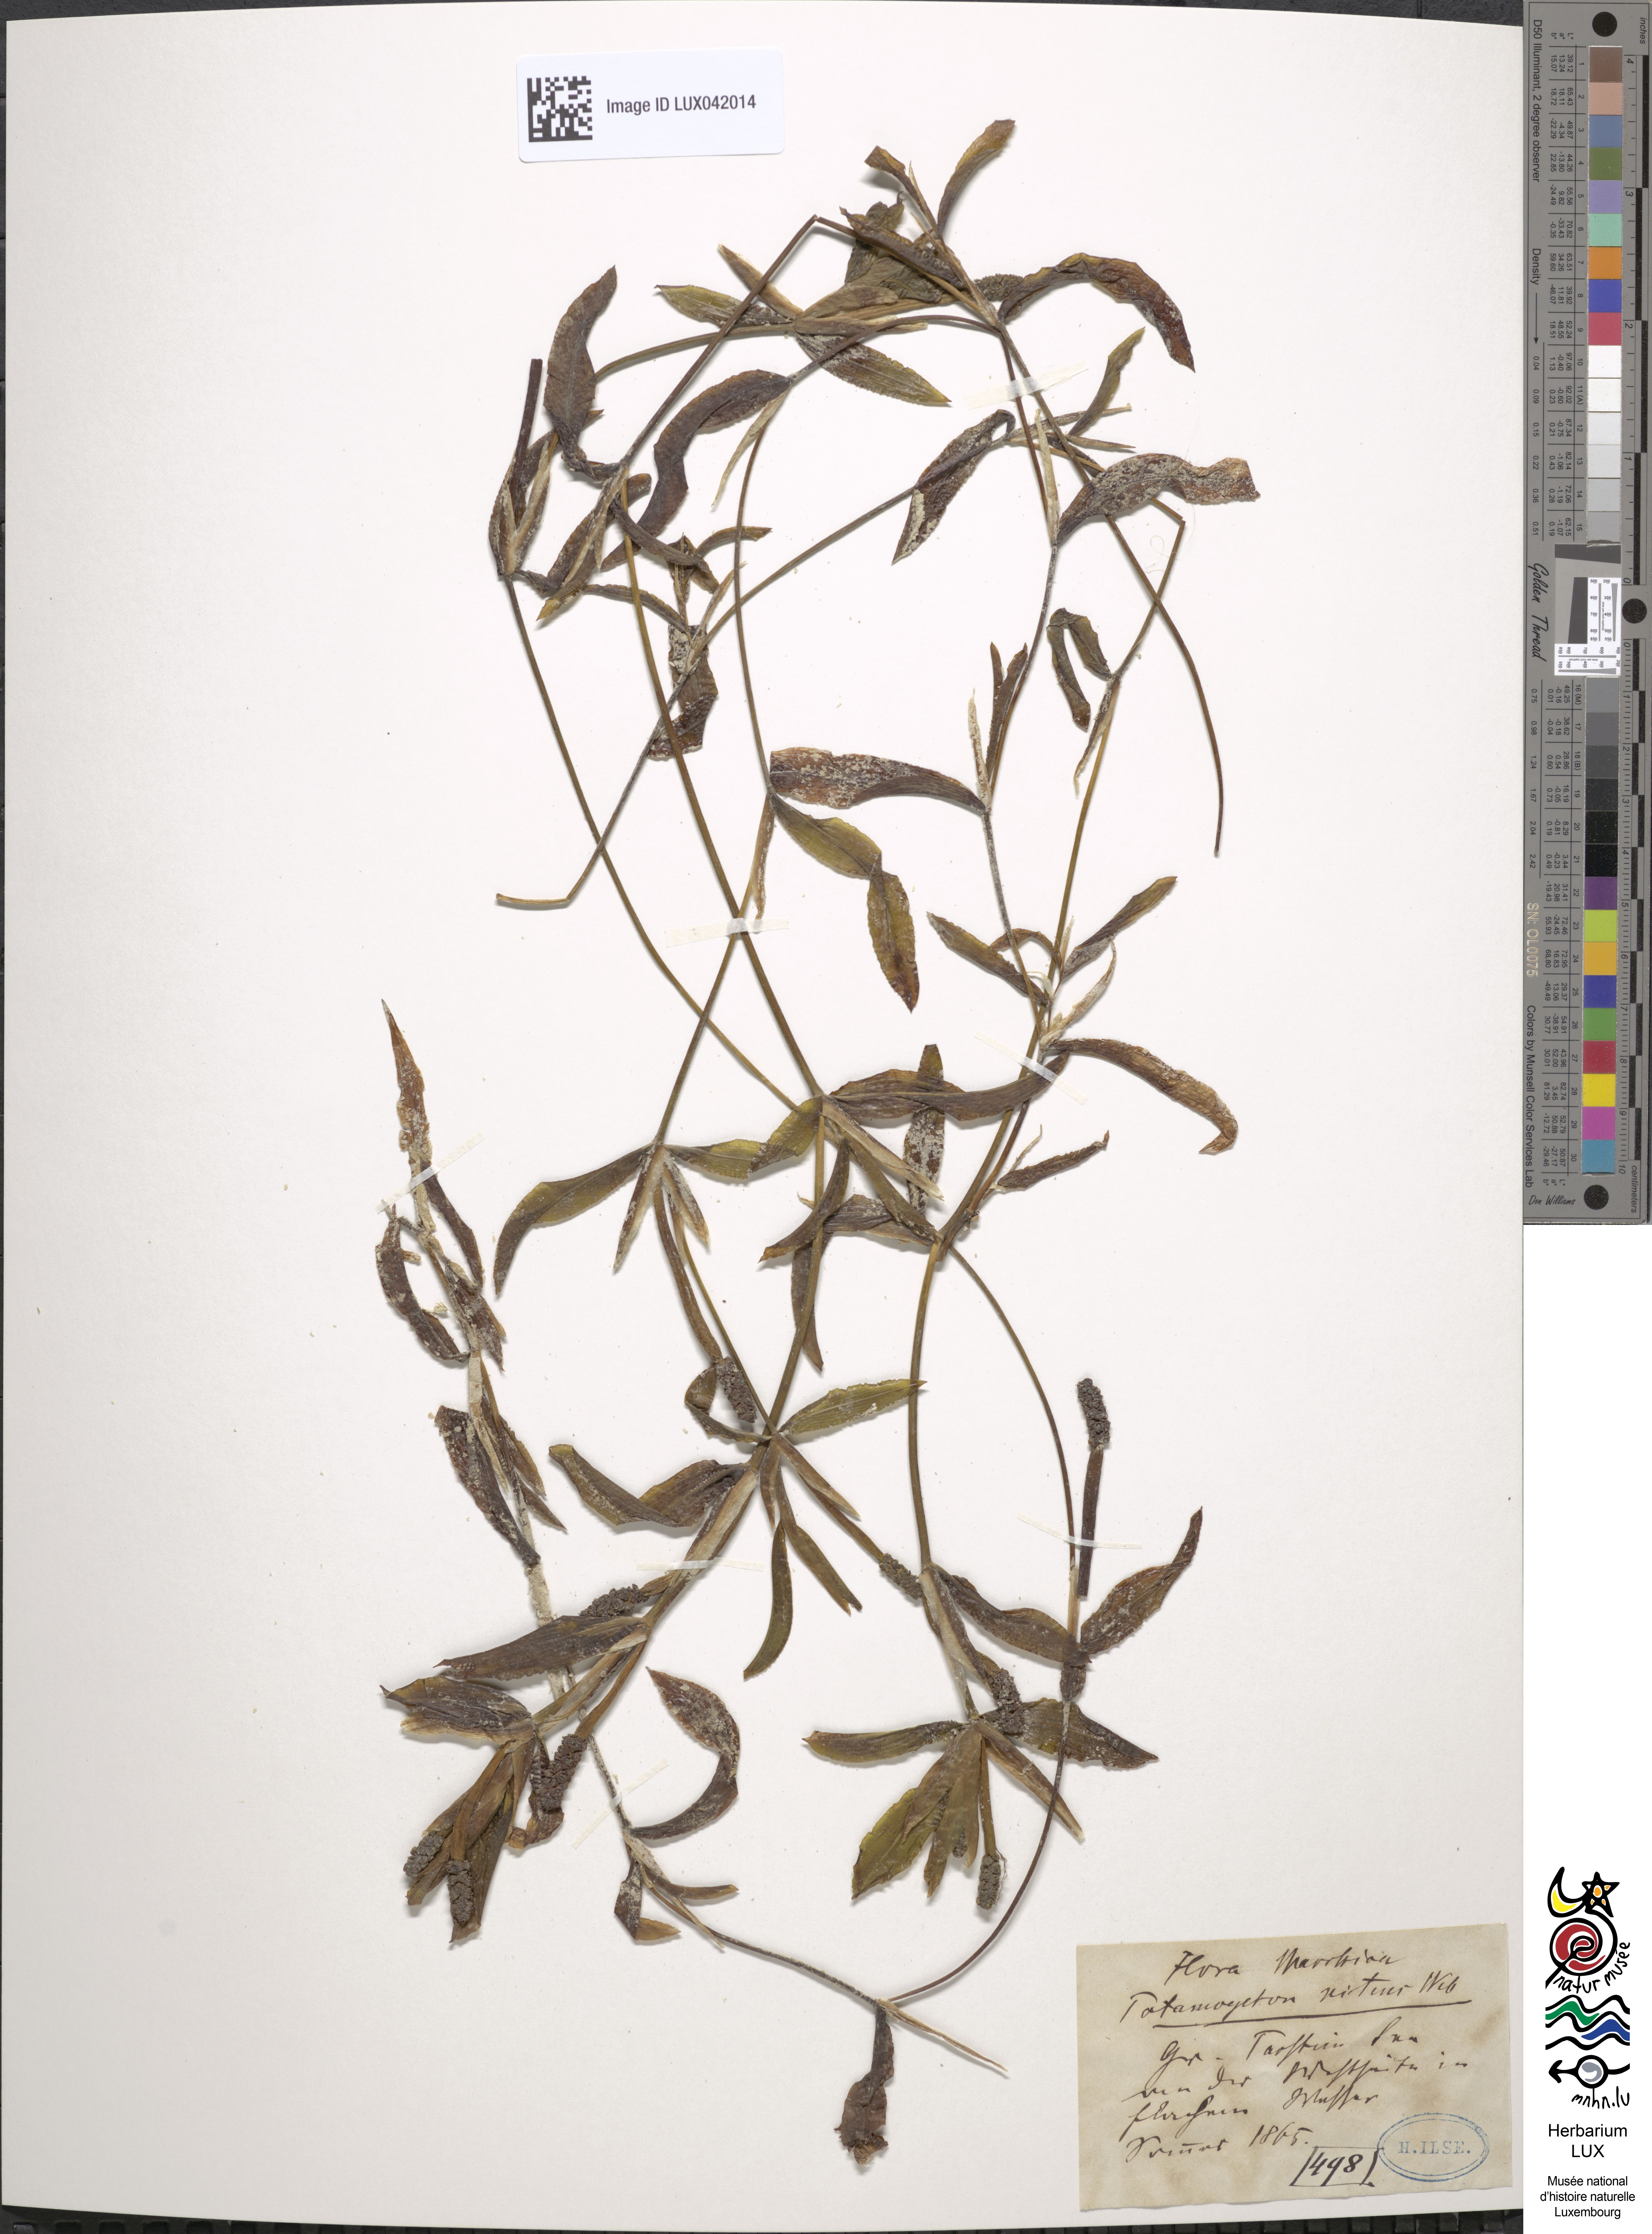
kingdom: Plantae
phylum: Tracheophyta
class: Liliopsida
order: Alismatales
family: Potamogetonaceae
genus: Potamogeton
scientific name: Potamogeton nitens
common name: Pondweed
